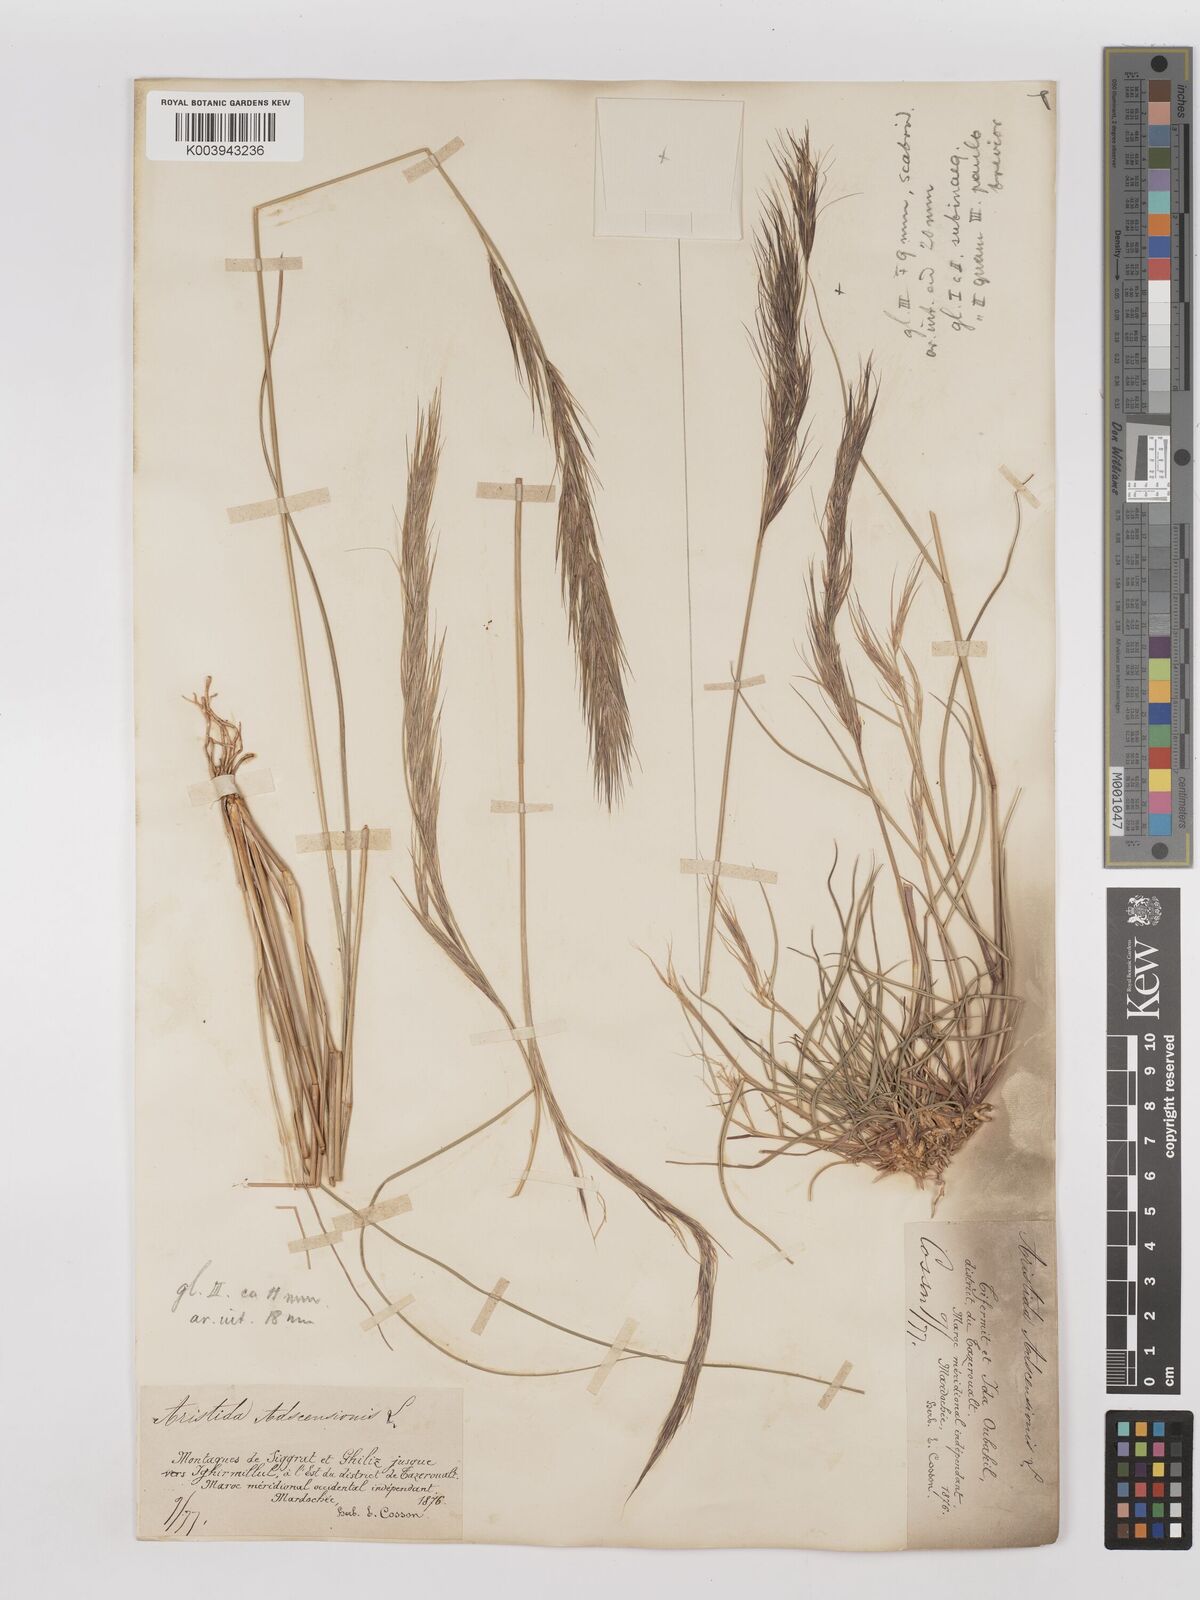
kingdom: Plantae
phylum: Tracheophyta
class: Liliopsida
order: Poales
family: Poaceae
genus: Aristida
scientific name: Aristida adscensionis
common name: Sixweeks threeawn
